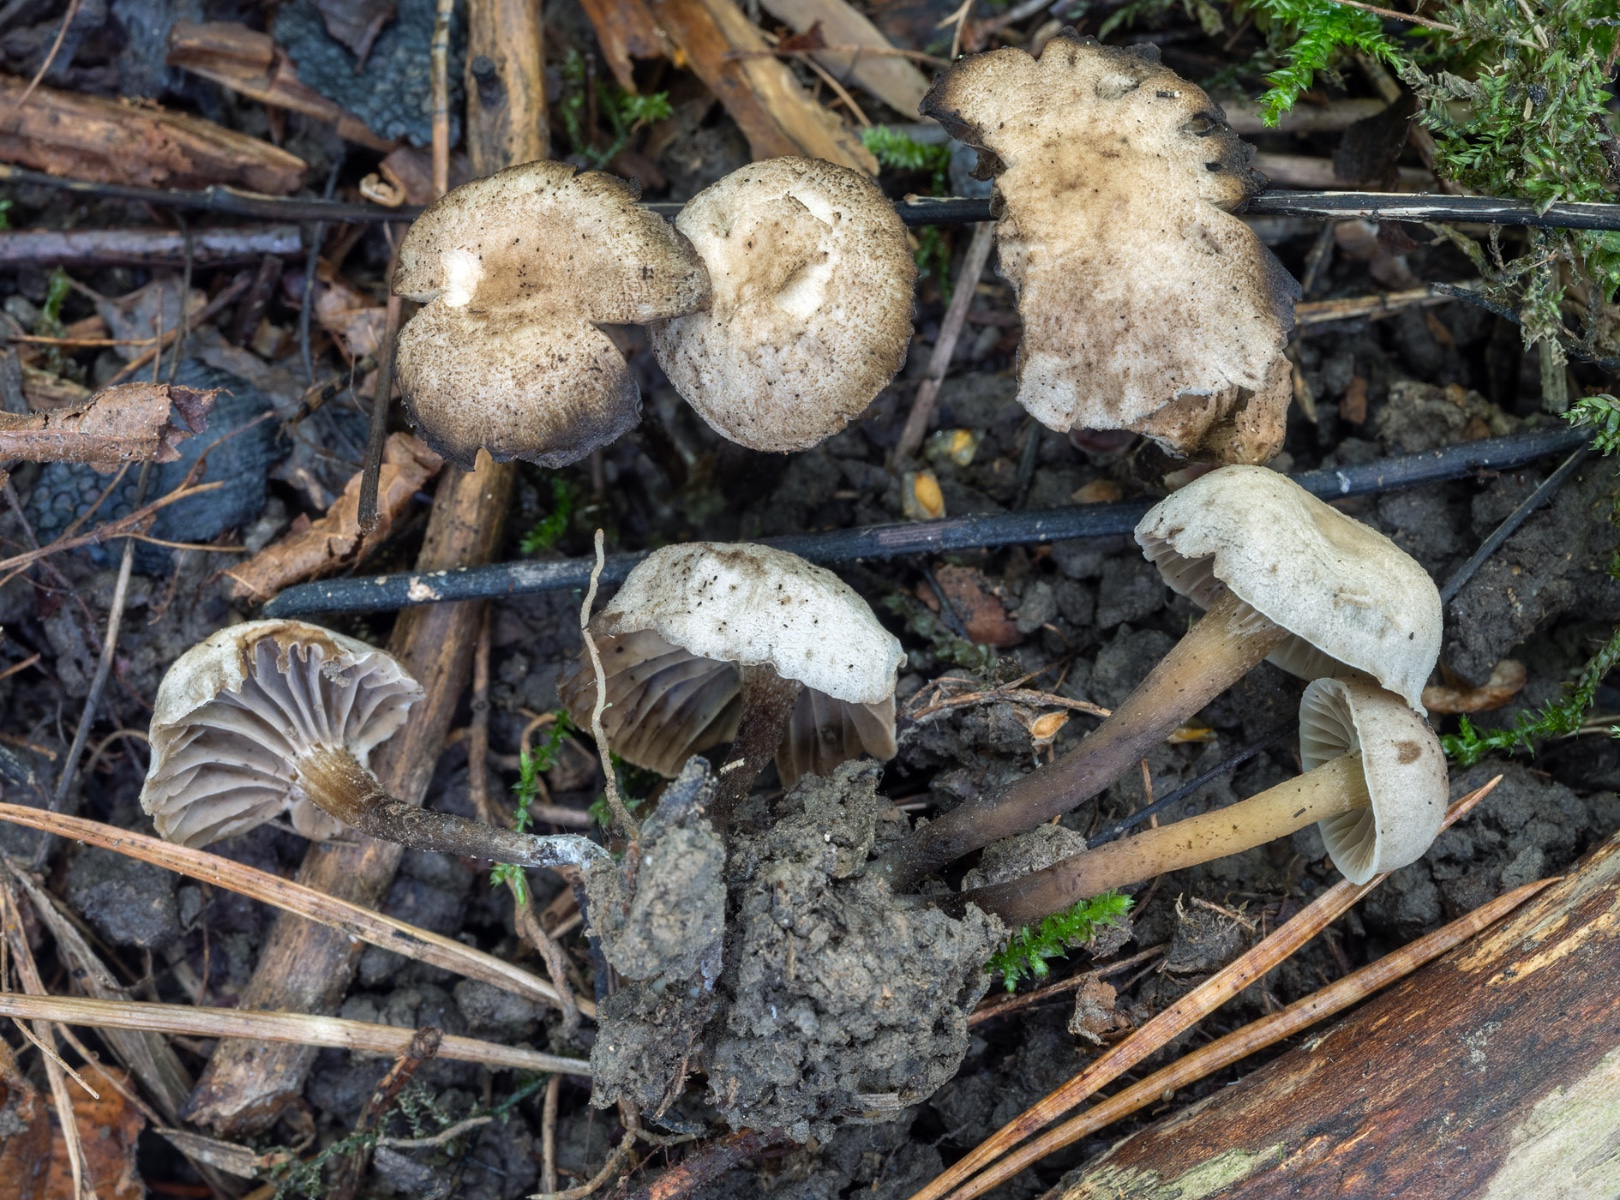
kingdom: Fungi
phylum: Basidiomycota
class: Agaricomycetes
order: Agaricales
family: Clavariaceae
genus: Hodophilus
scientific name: Hodophilus
